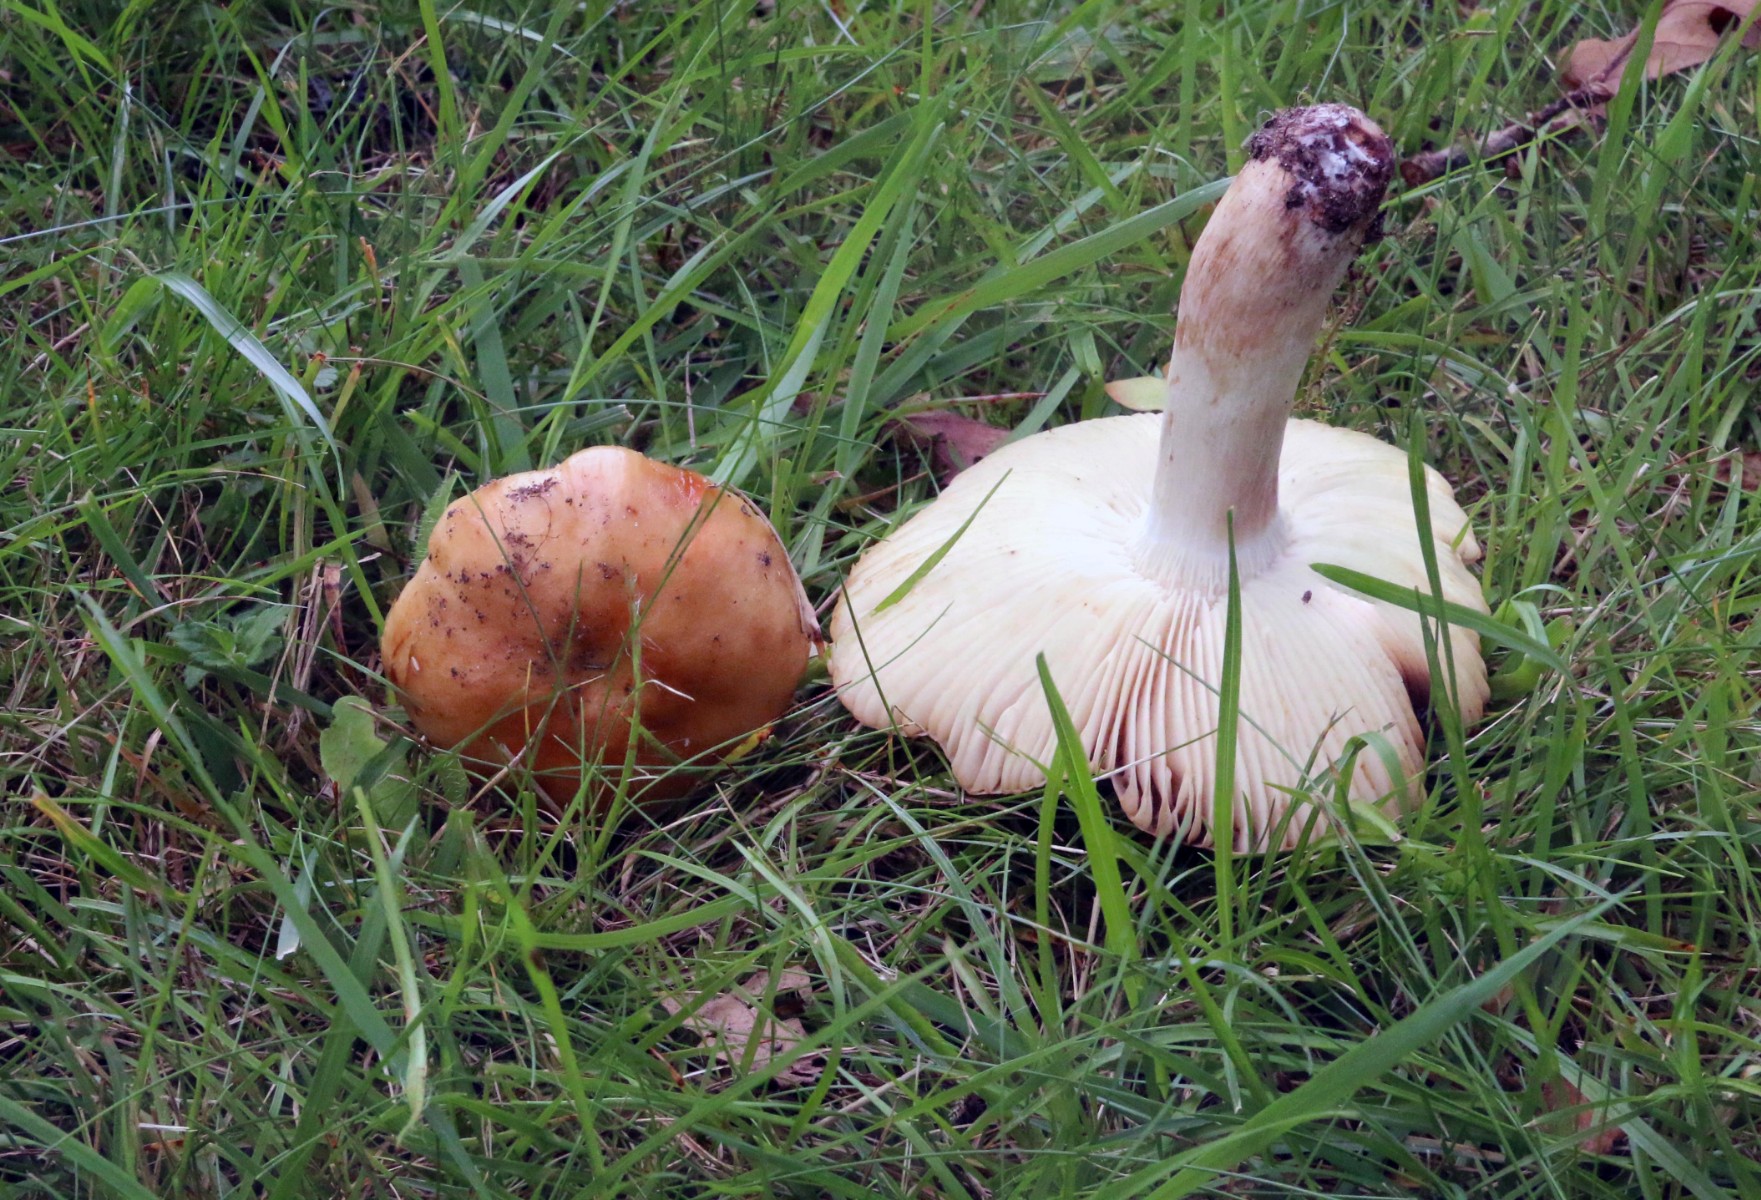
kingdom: Fungi
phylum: Basidiomycota
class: Agaricomycetes
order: Russulales
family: Russulaceae
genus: Russula
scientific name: Russula grata
